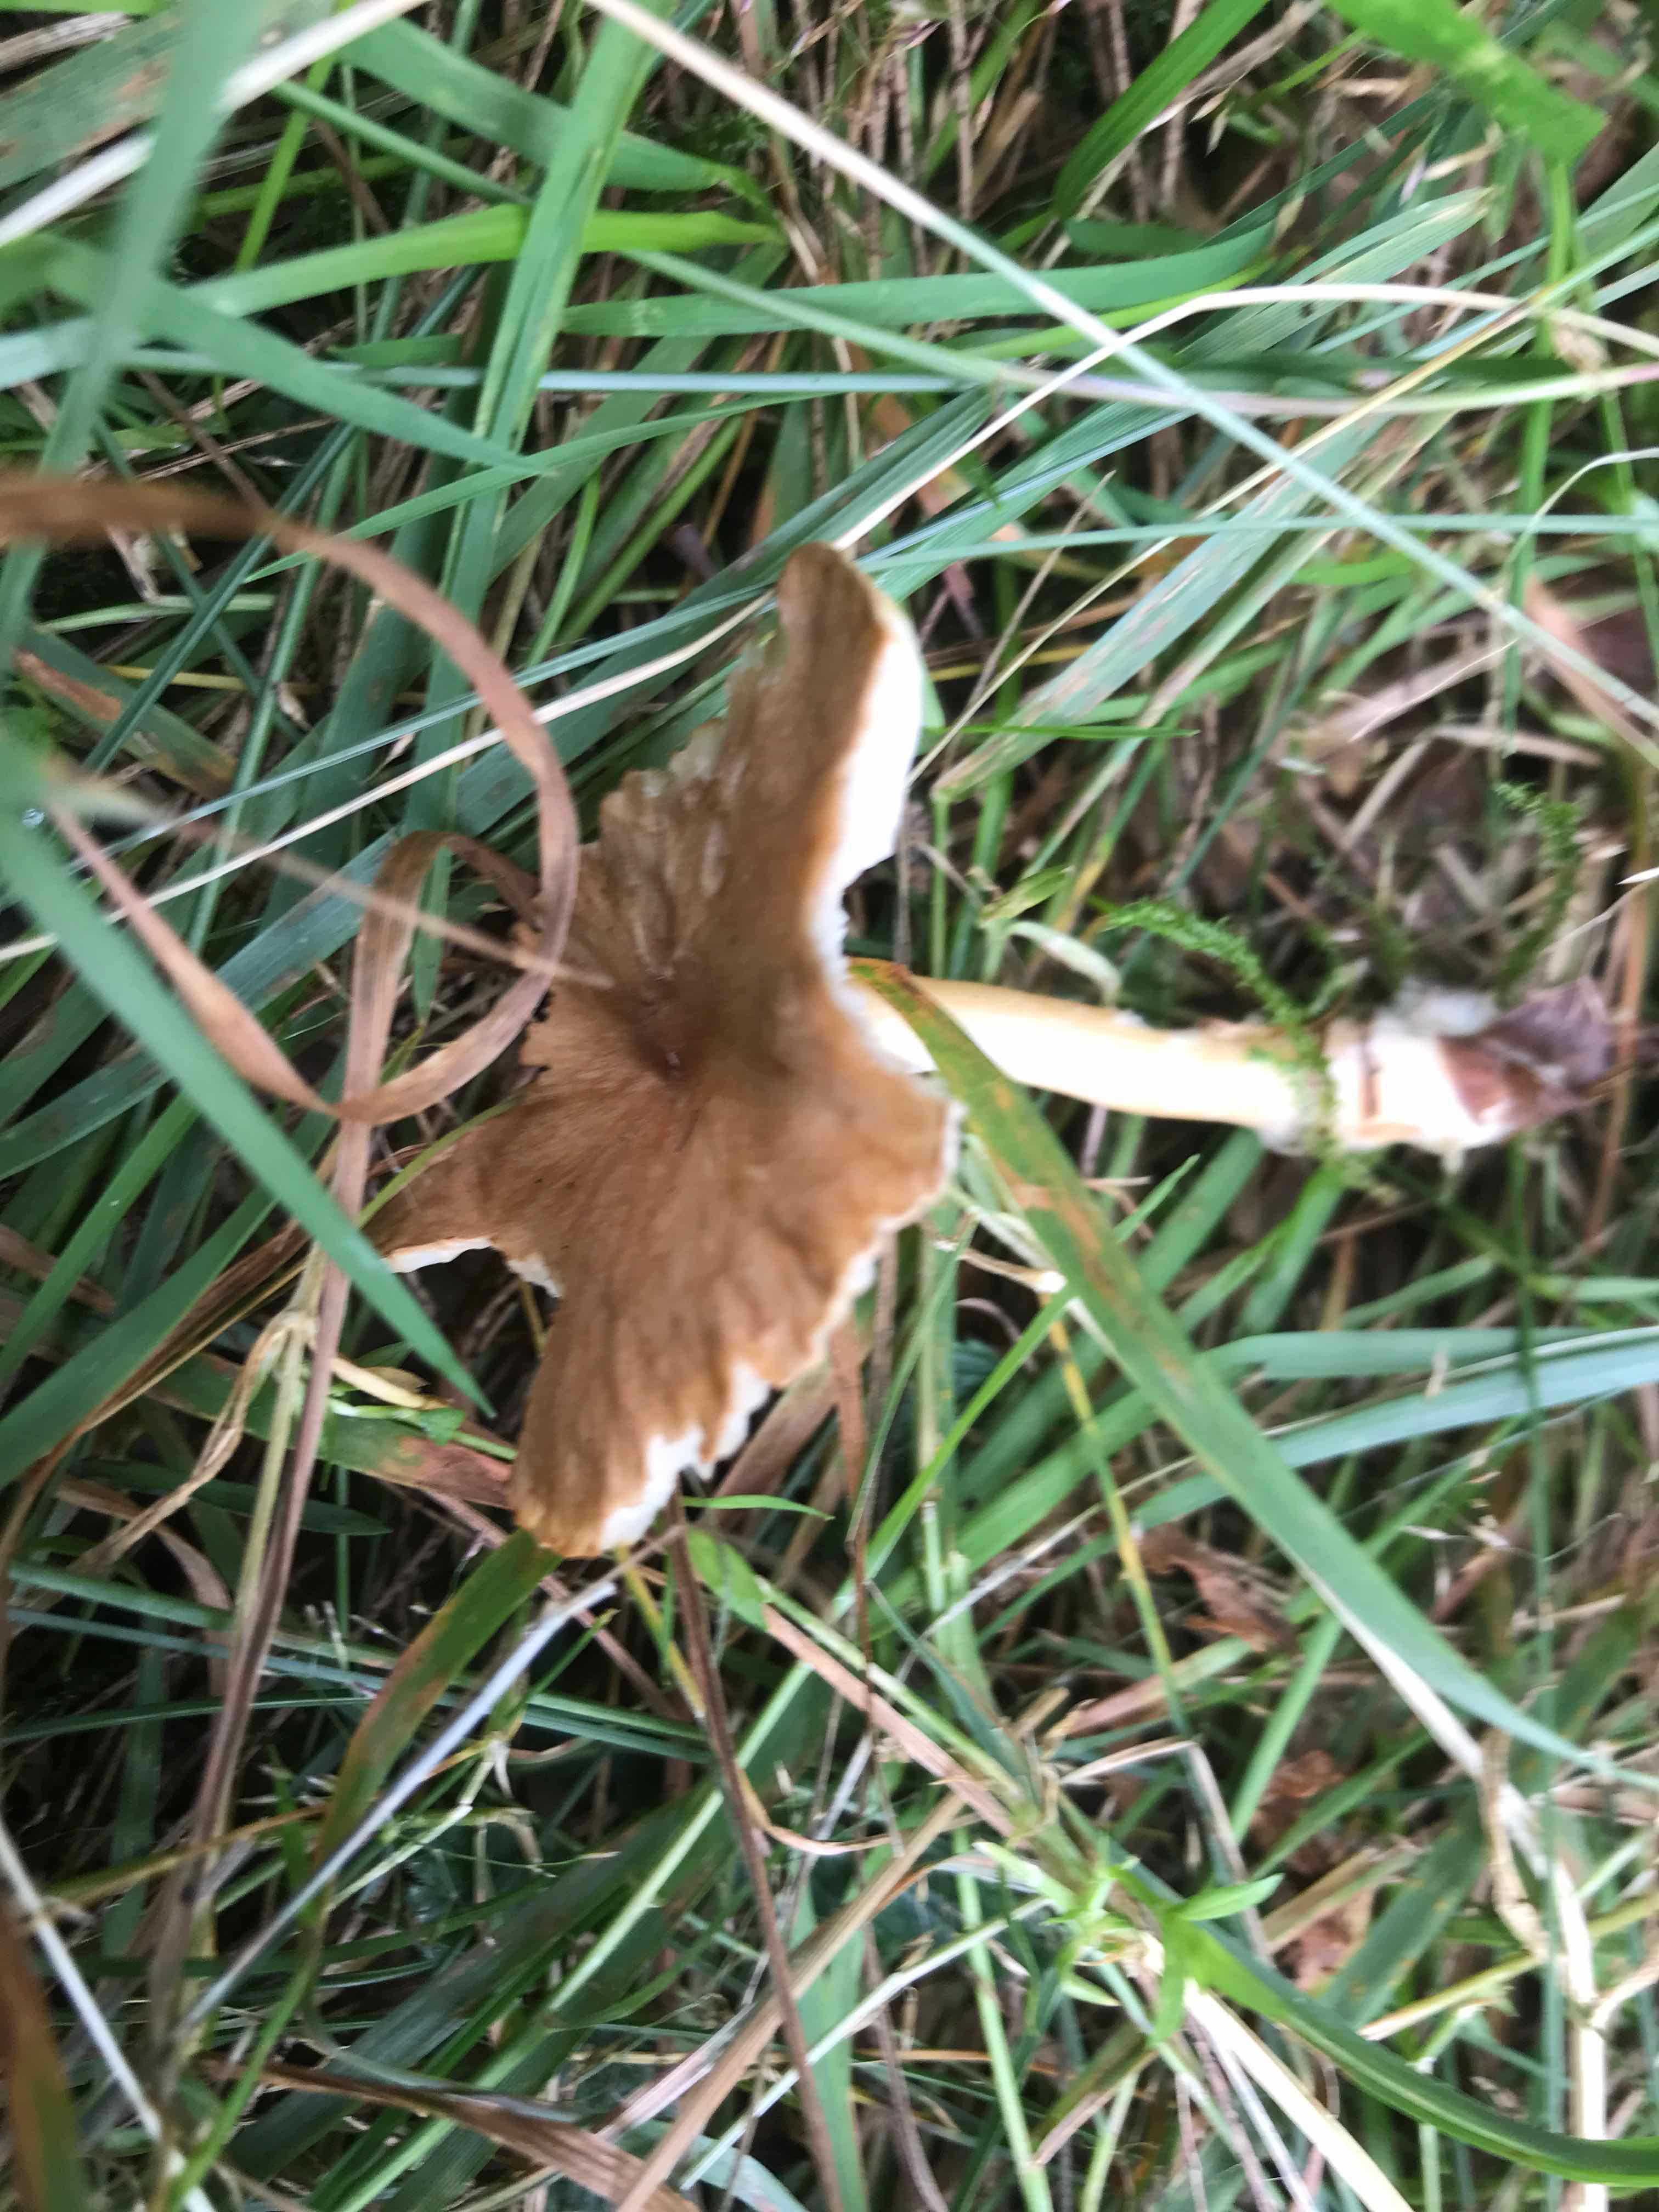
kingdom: Fungi
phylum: Basidiomycota
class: Agaricomycetes
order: Agaricales
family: Tricholomataceae
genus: Infundibulicybe
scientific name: Infundibulicybe gibba
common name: almindelig tragthat
